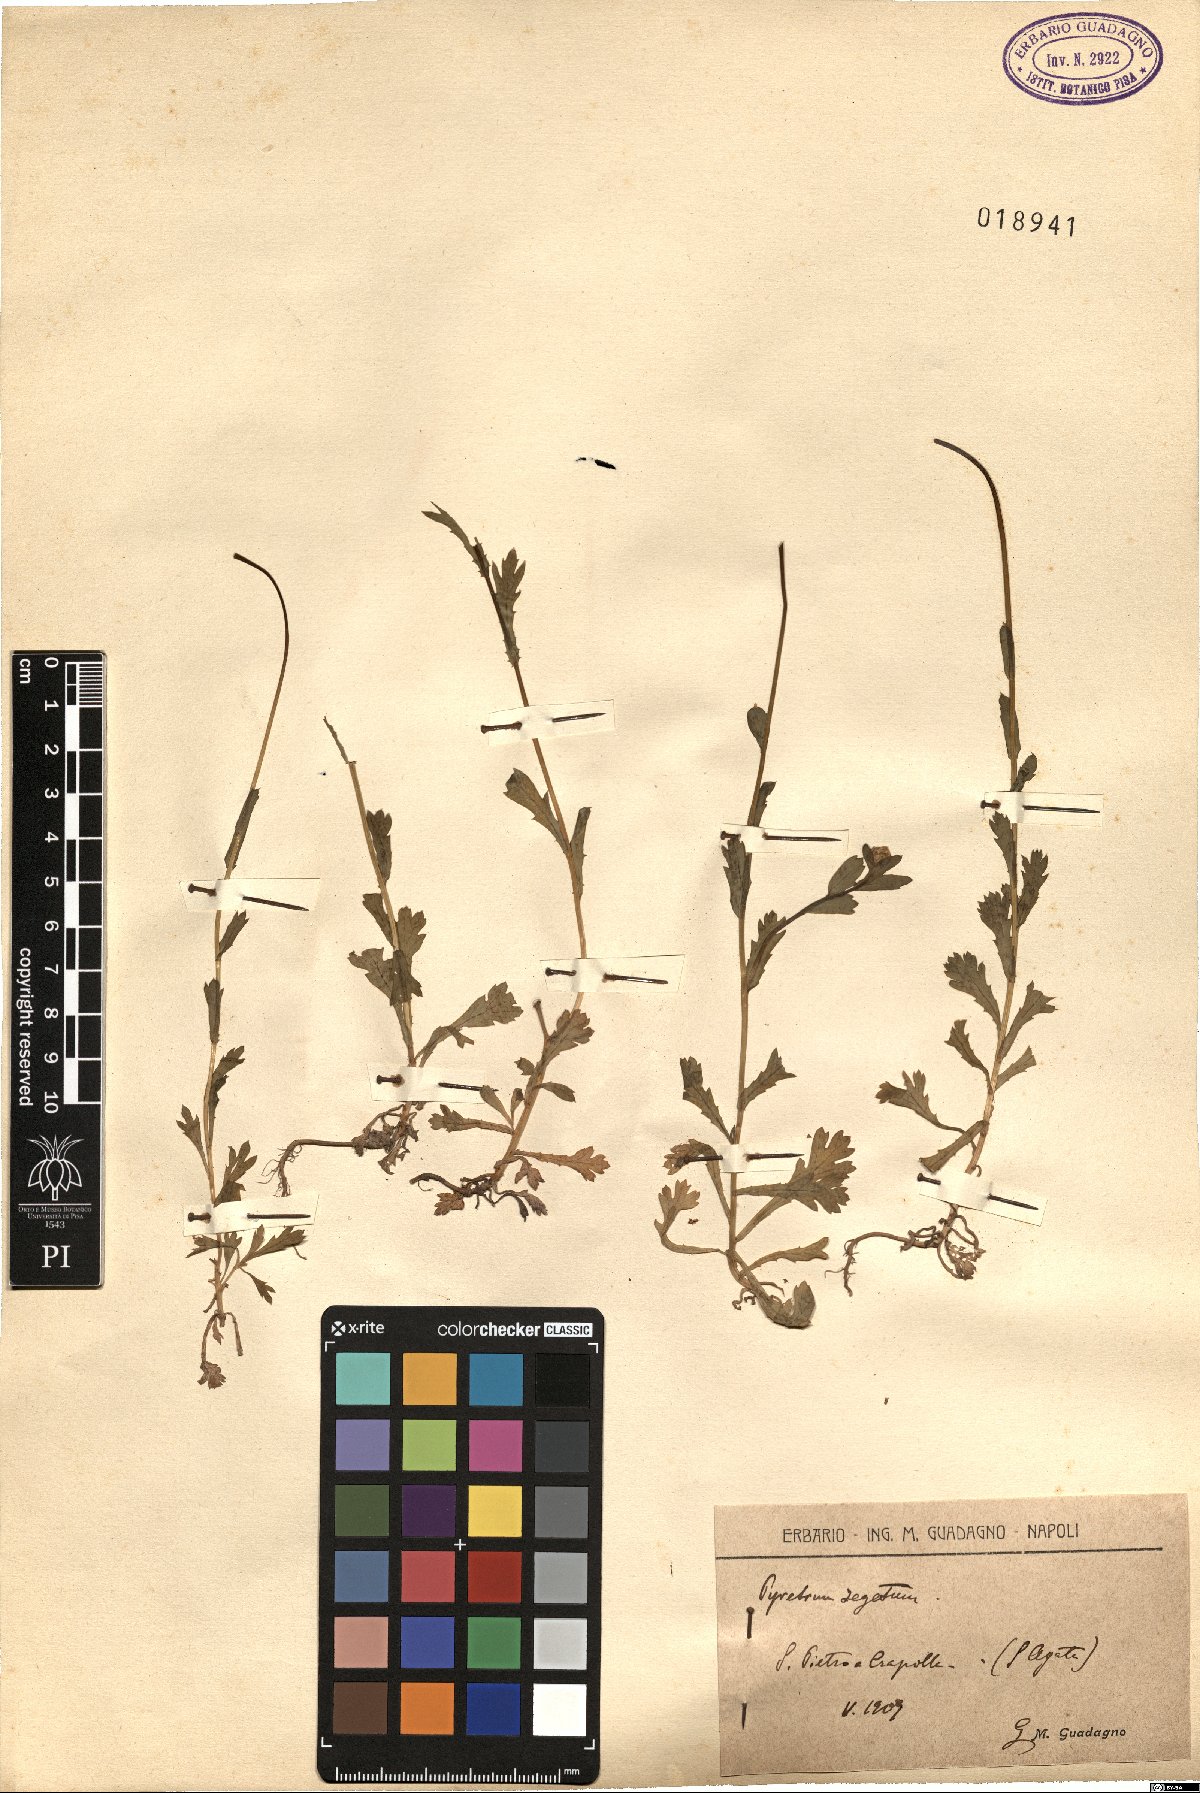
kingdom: Plantae
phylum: Tracheophyta
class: Magnoliopsida
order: Asterales
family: Asteraceae
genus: Glebionis
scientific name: Glebionis segetum
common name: Corndaisy
